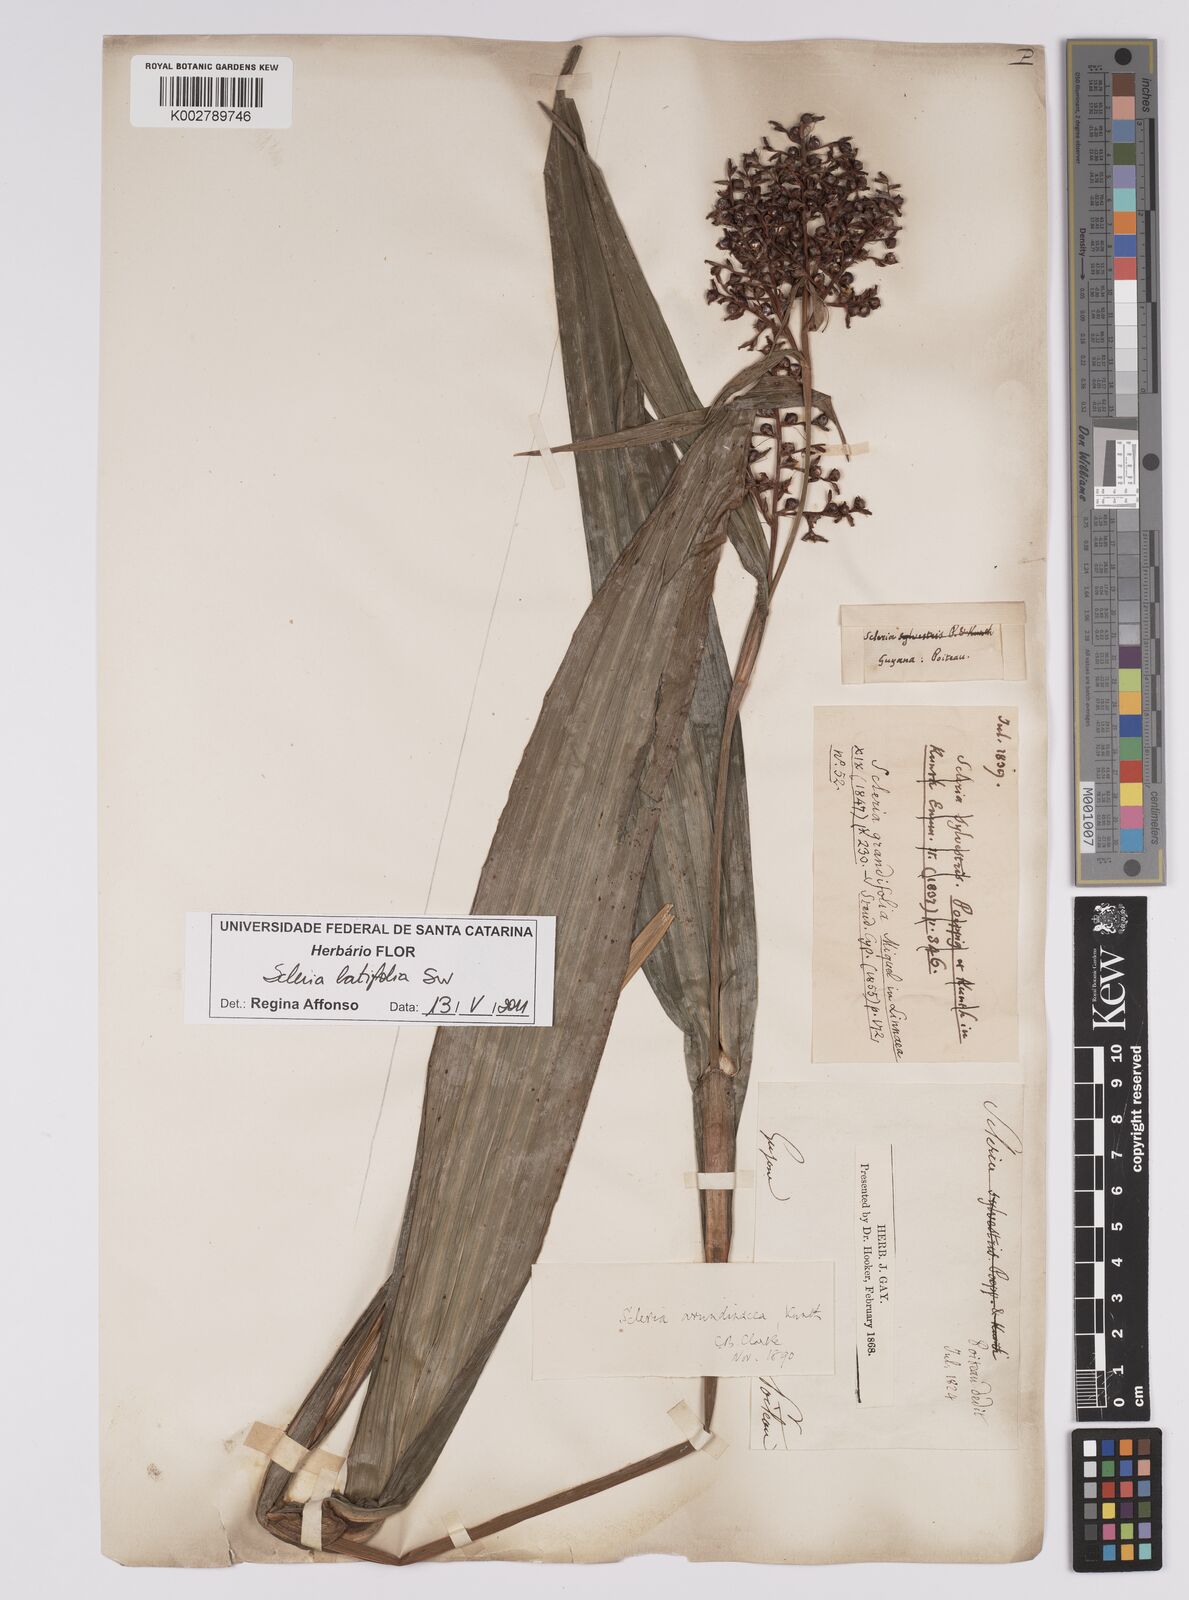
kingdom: Plantae
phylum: Tracheophyta
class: Liliopsida
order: Poales
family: Cyperaceae
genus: Scleria
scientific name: Scleria latifolia
